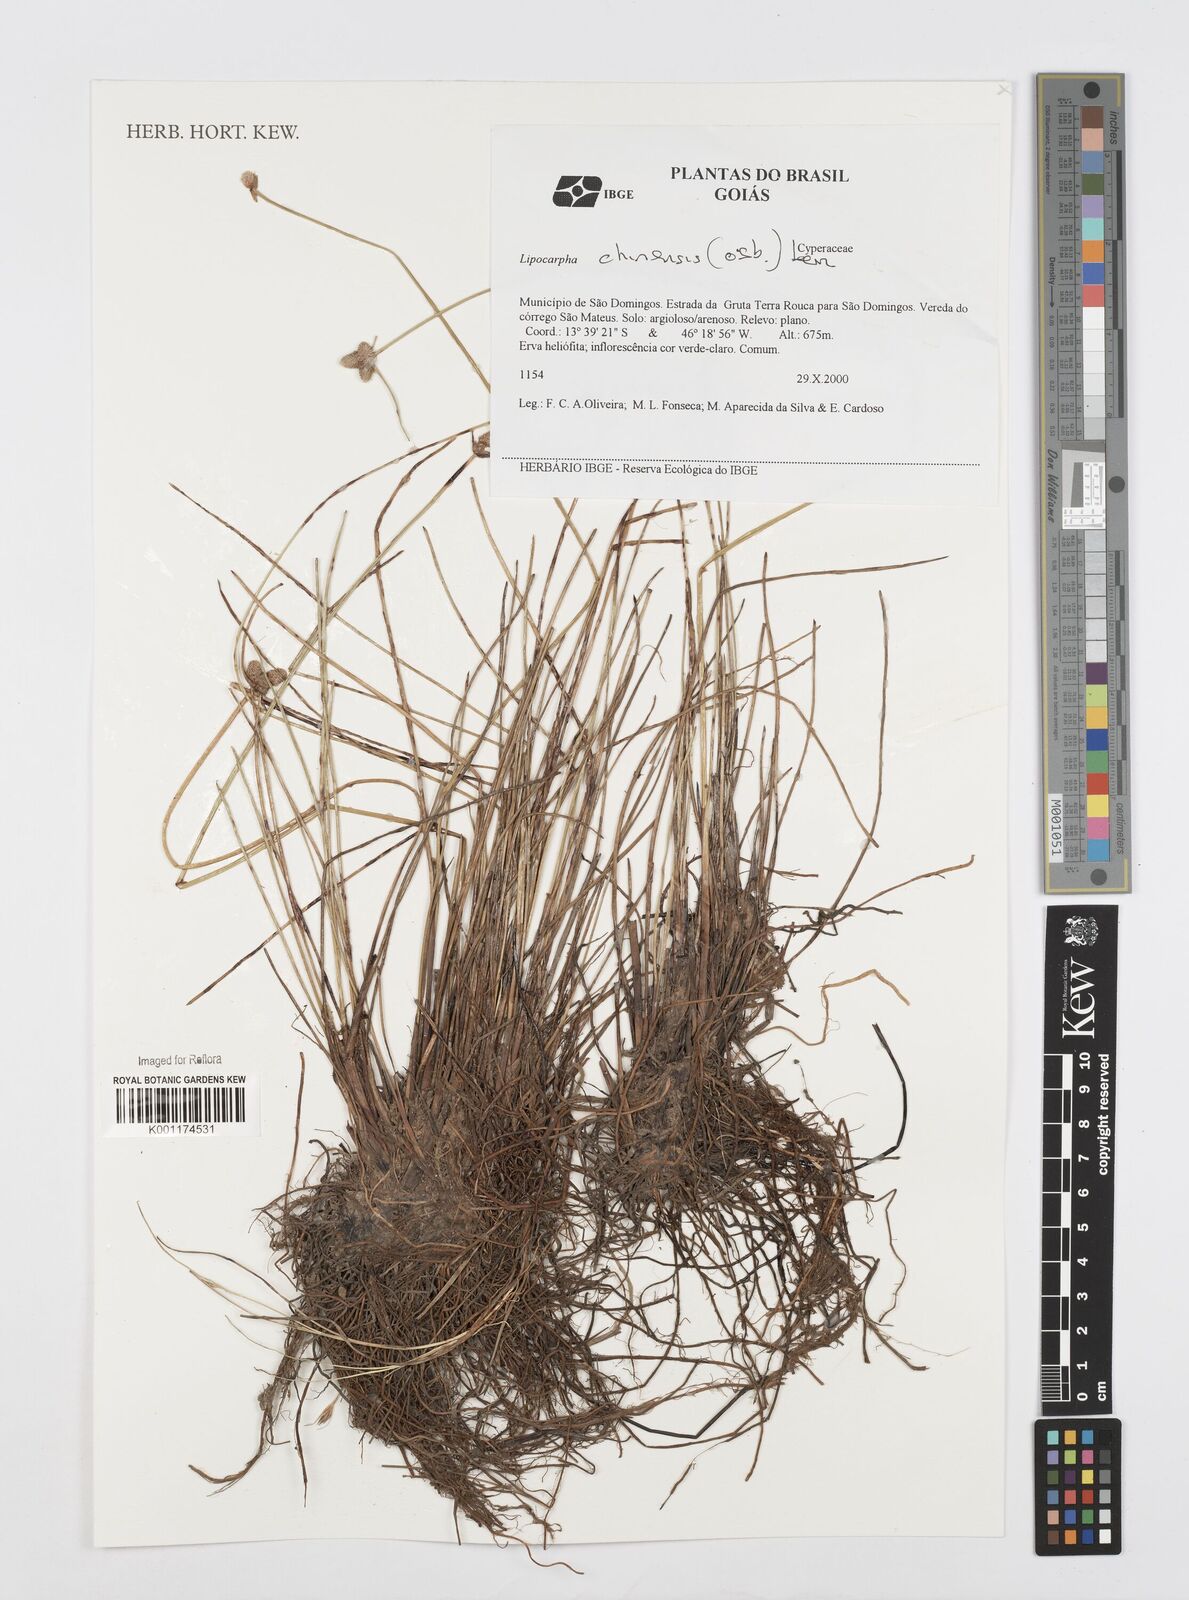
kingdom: Plantae
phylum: Tracheophyta
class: Liliopsida
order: Poales
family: Cyperaceae
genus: Cyperus
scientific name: Cyperus
